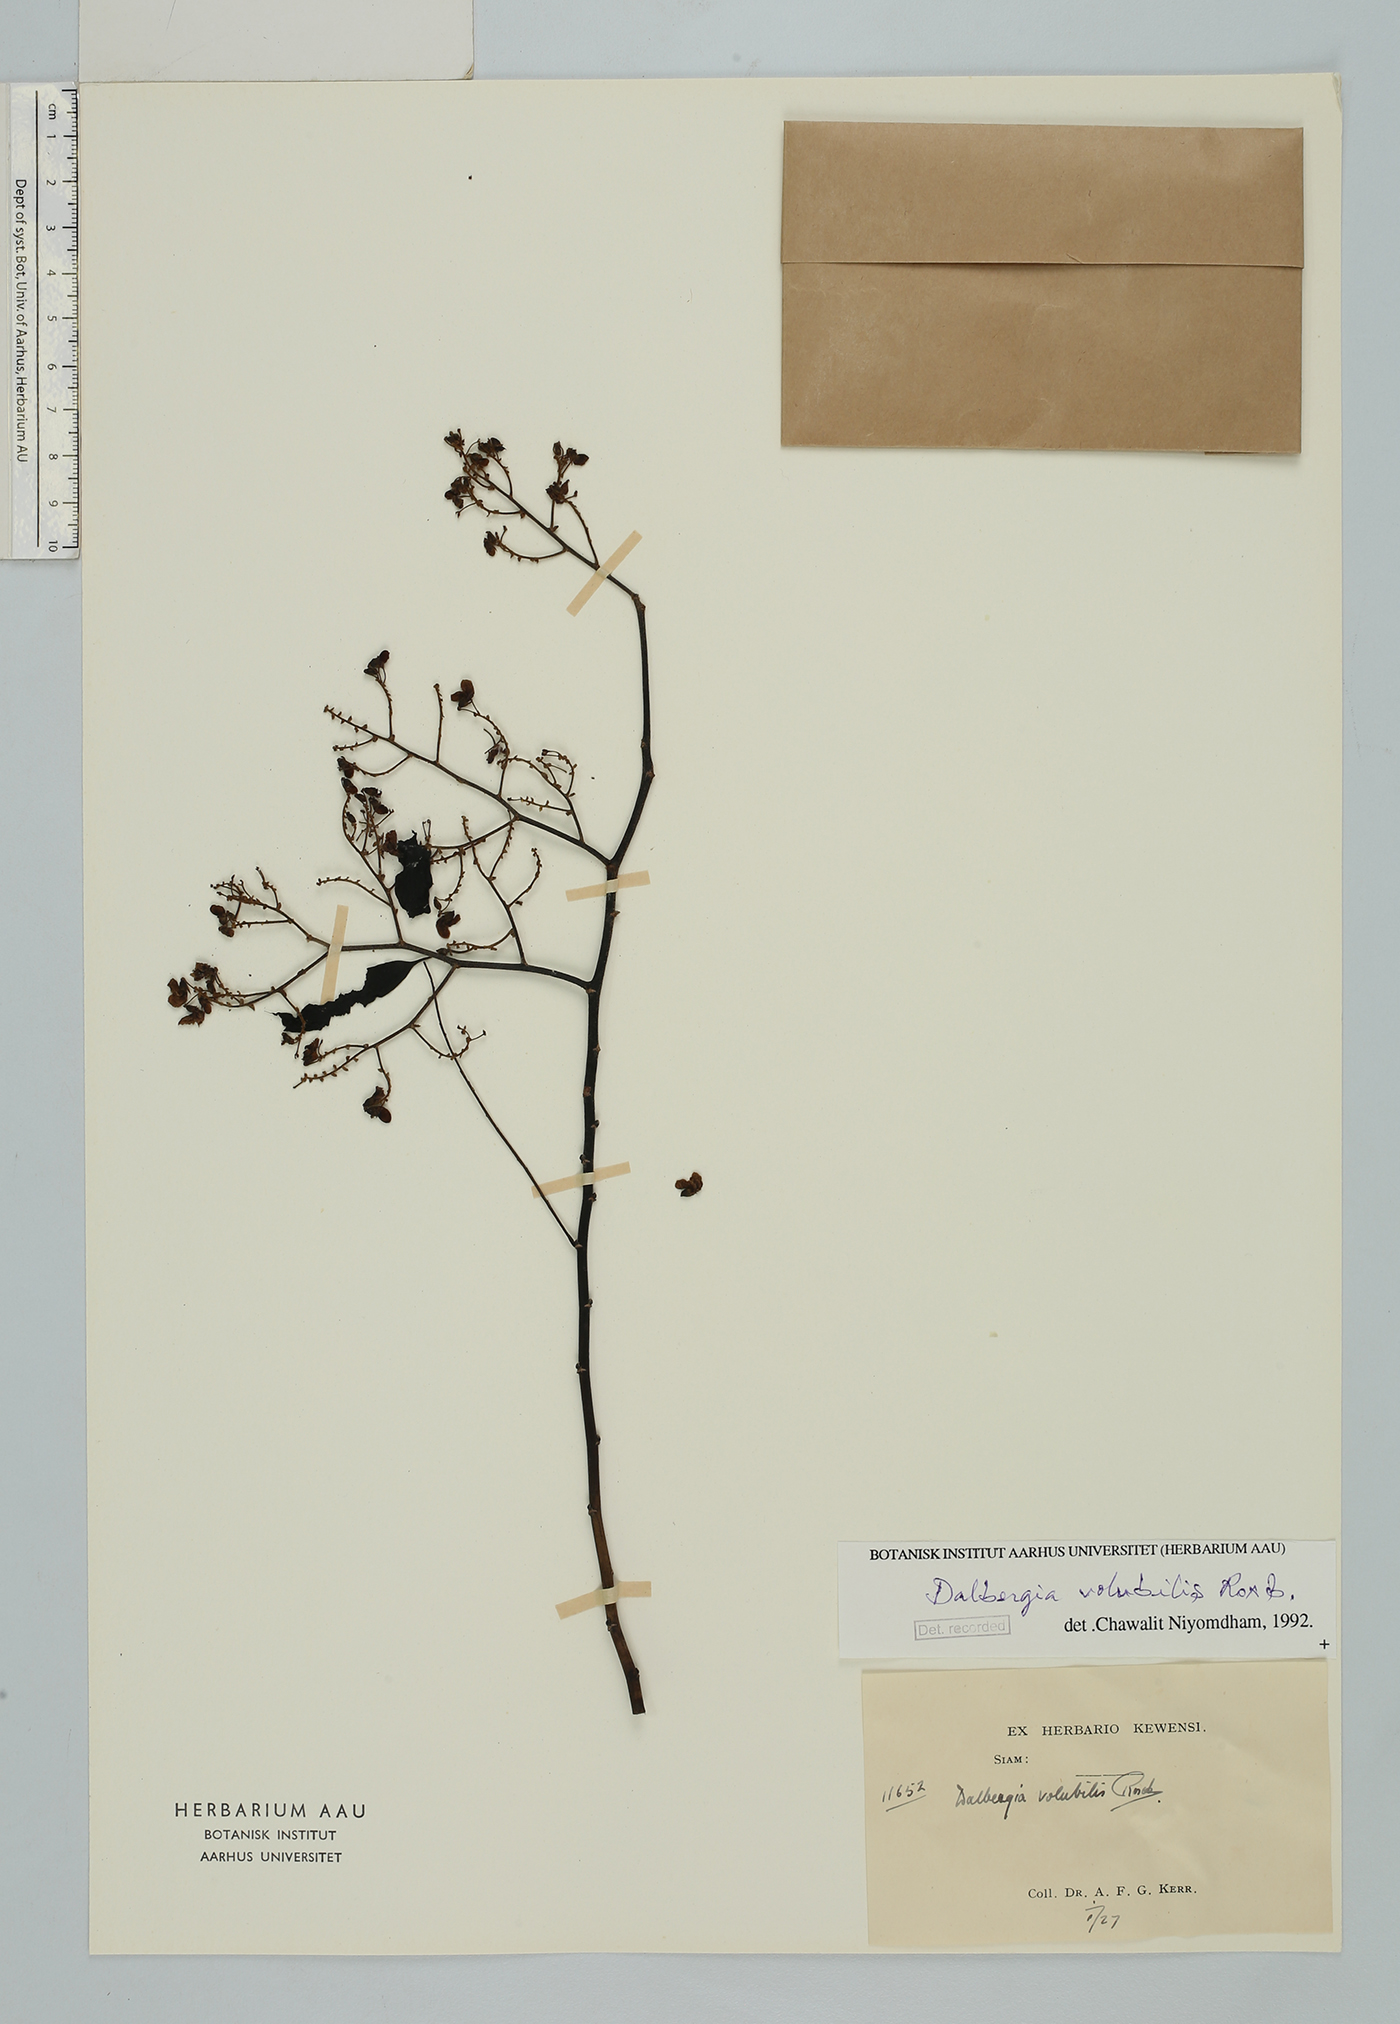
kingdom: Plantae
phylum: Tracheophyta
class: Magnoliopsida
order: Fabales
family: Fabaceae
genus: Dalbergia
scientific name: Dalbergia volubilis
